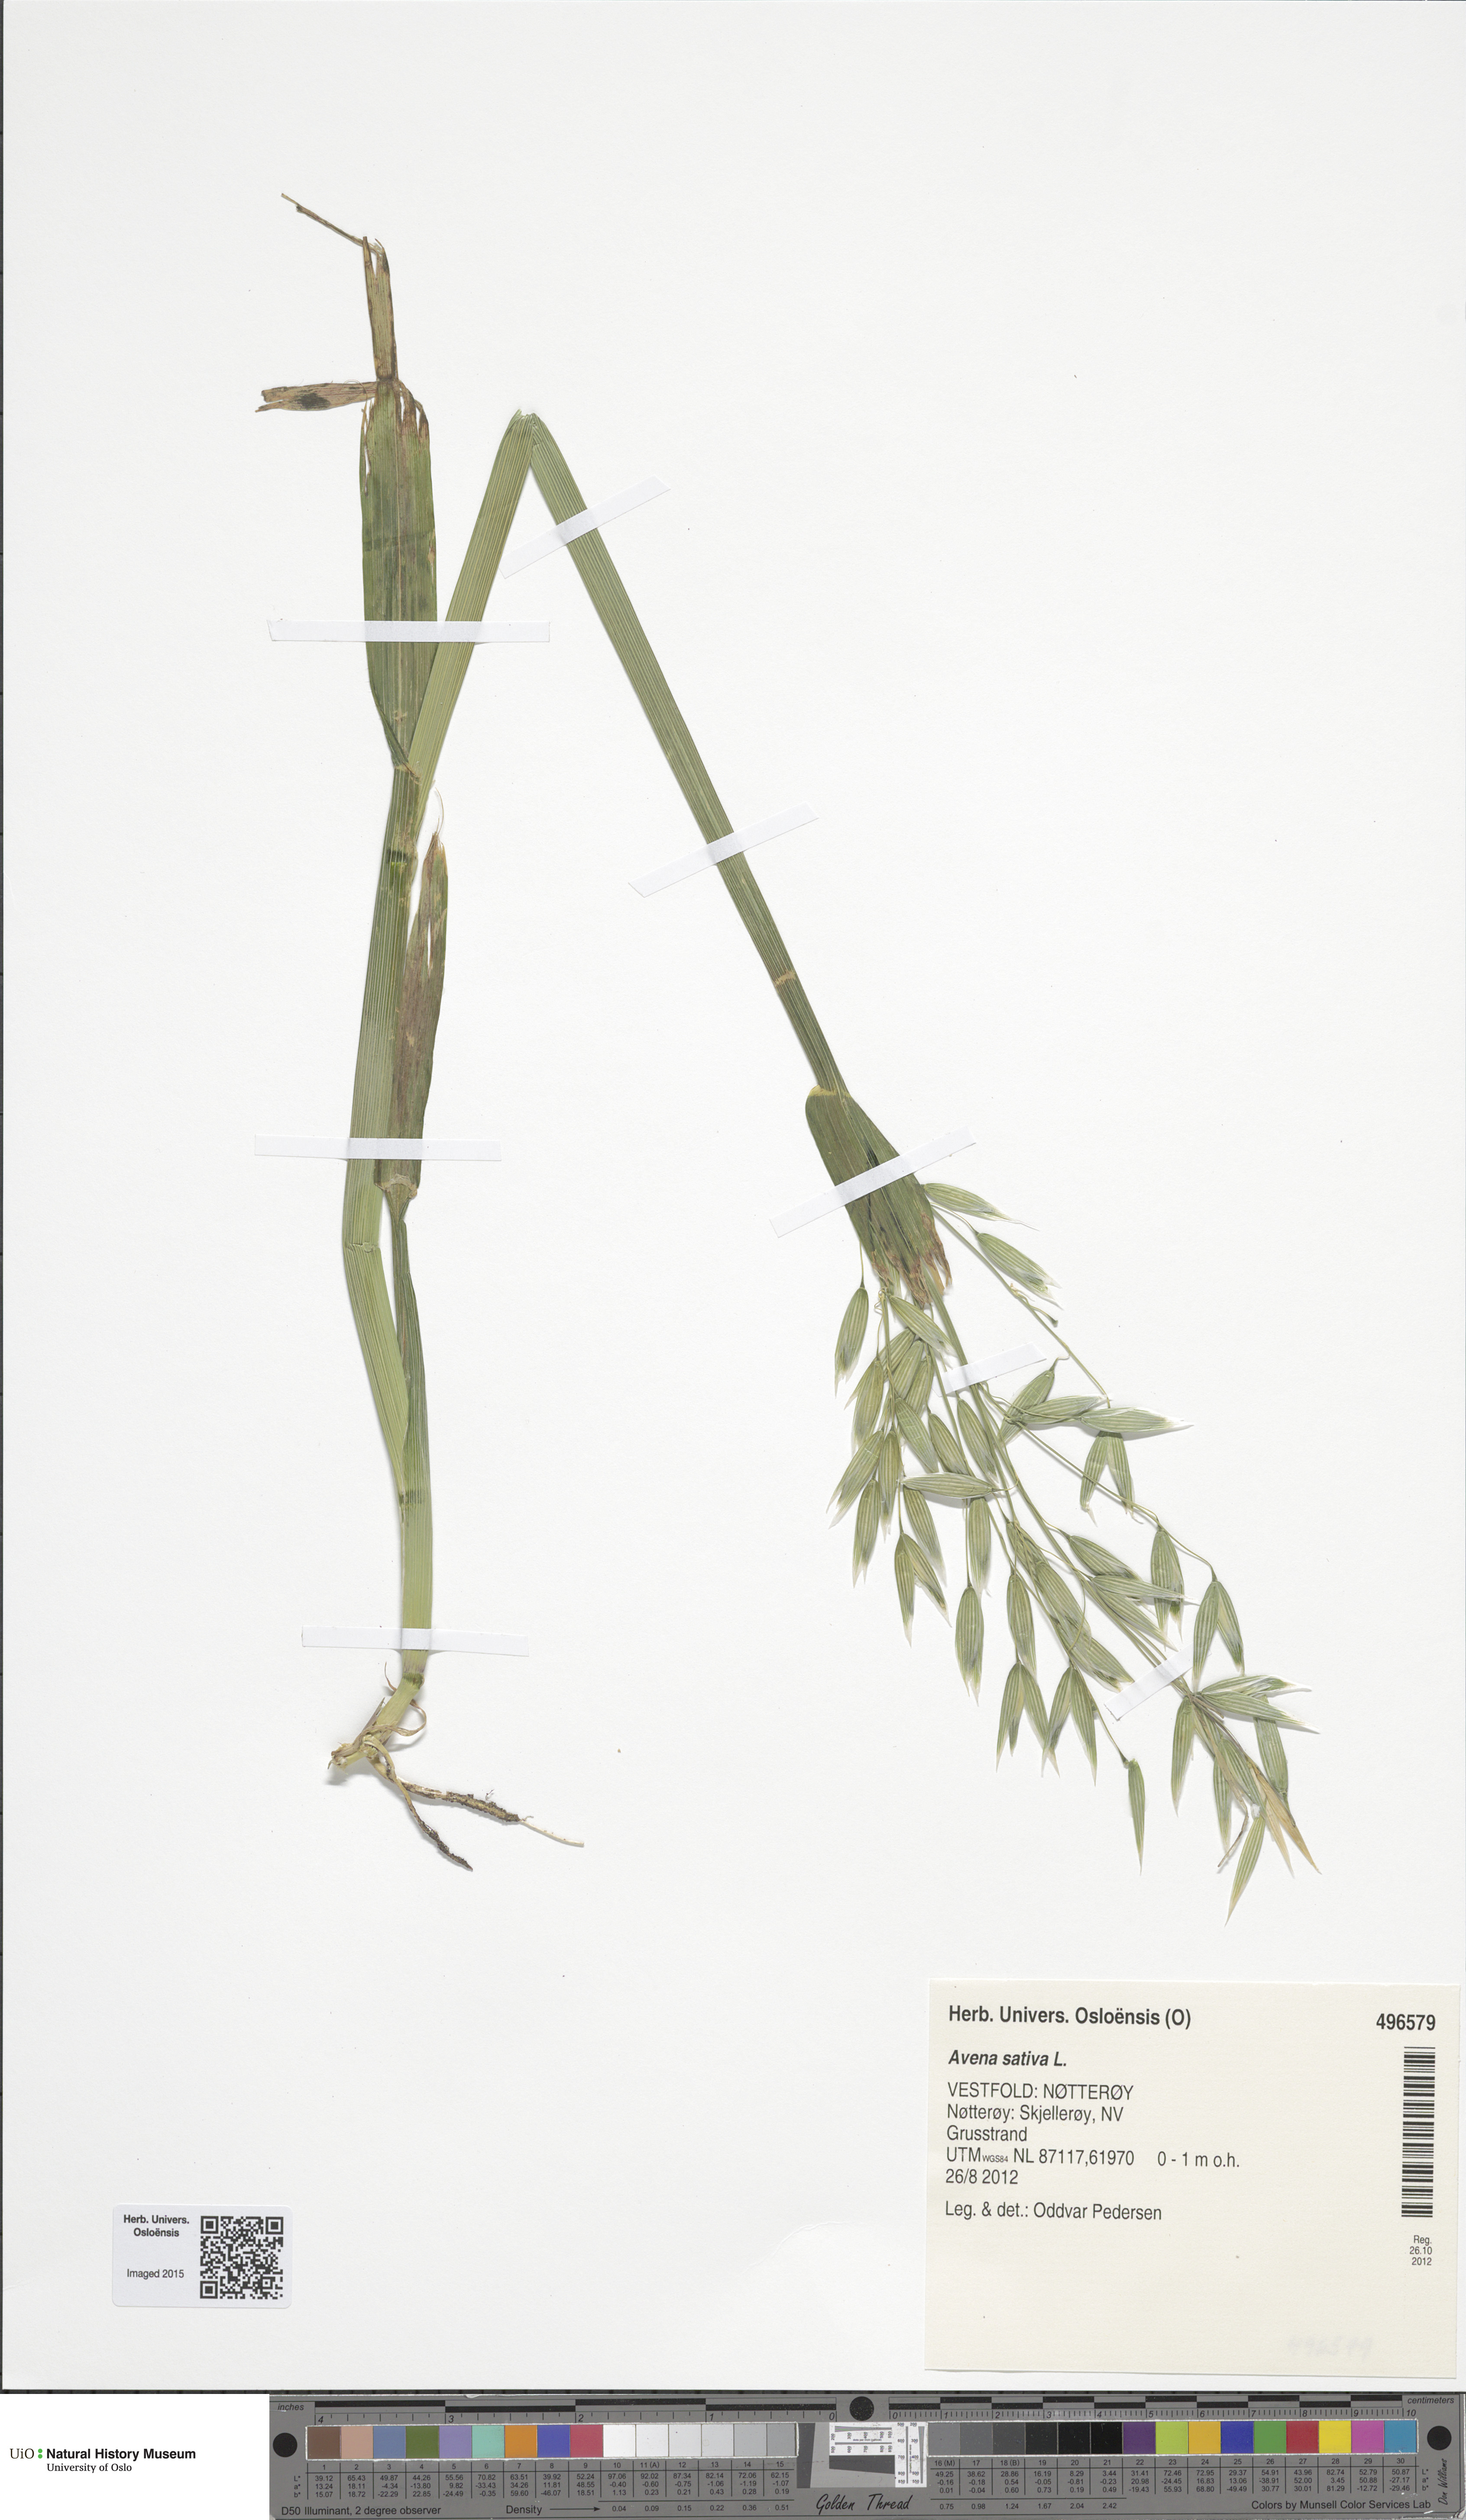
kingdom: Plantae
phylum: Tracheophyta
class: Liliopsida
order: Poales
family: Poaceae
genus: Avena
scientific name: Avena sativa
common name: Oat
